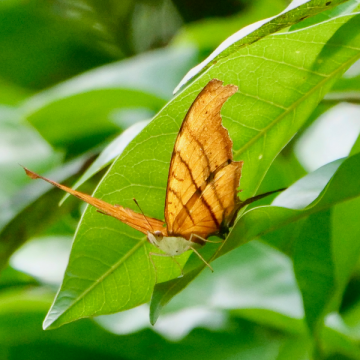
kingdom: Animalia
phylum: Arthropoda
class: Insecta
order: Lepidoptera
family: Nymphalidae
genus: Marpesia
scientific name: Marpesia petreus
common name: Ruddy Daggerwing
